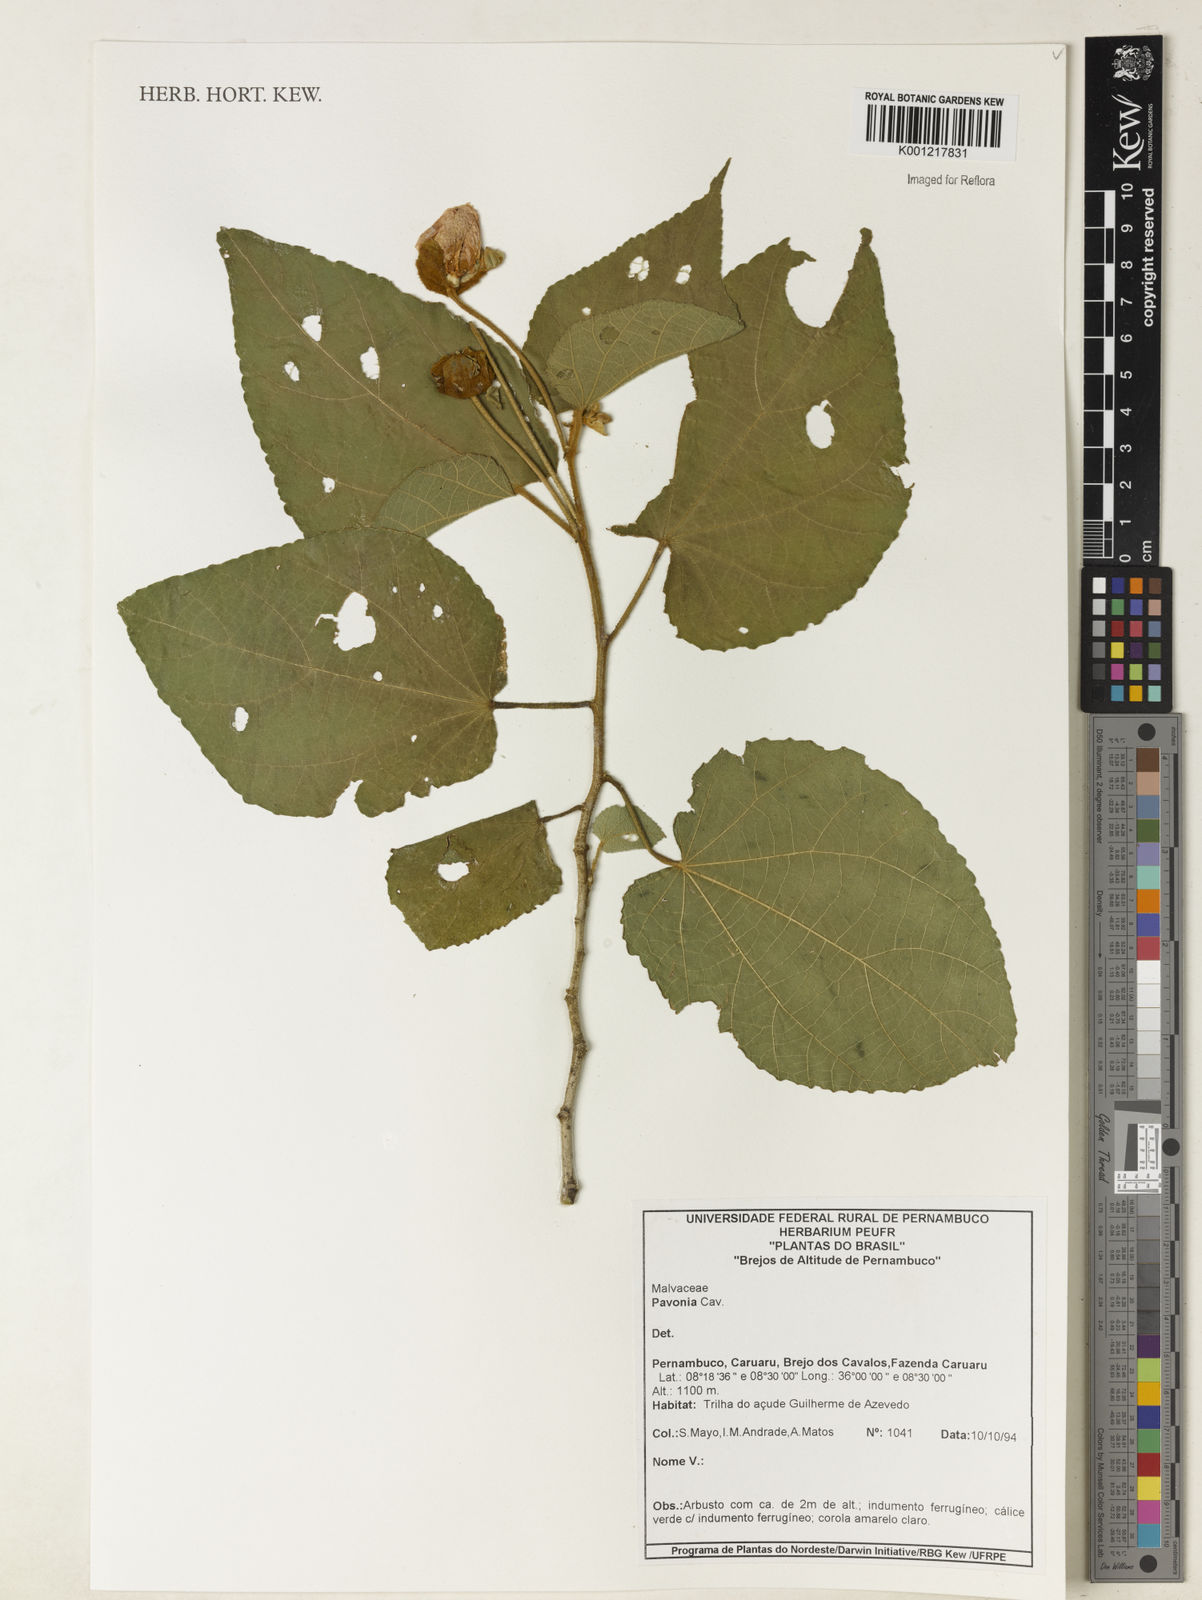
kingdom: Plantae
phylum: Tracheophyta
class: Magnoliopsida
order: Malvales
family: Malvaceae
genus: Pavonia
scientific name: Pavonia
